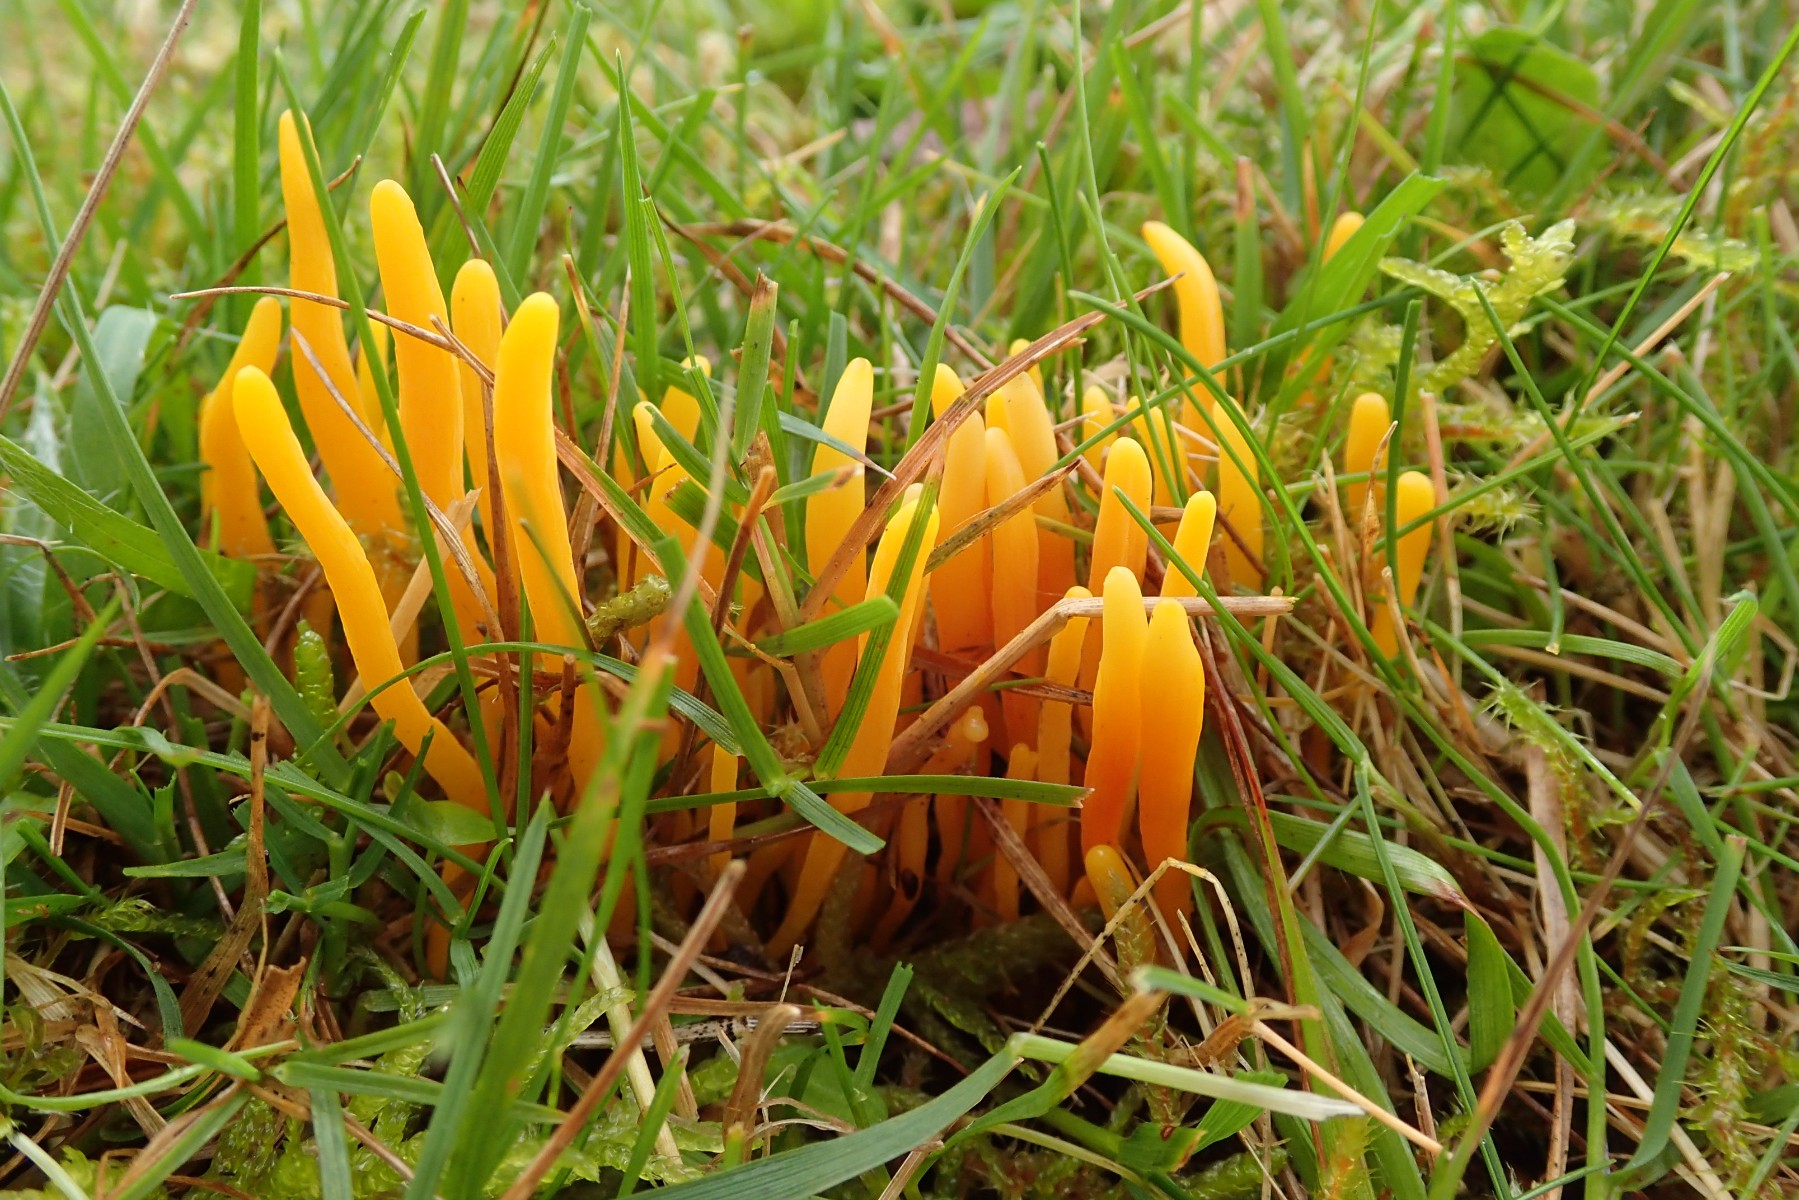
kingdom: Fungi
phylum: Basidiomycota
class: Agaricomycetes
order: Agaricales
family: Clavariaceae
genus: Clavulinopsis
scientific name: Clavulinopsis helvola
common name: orangegul køllesvamp
